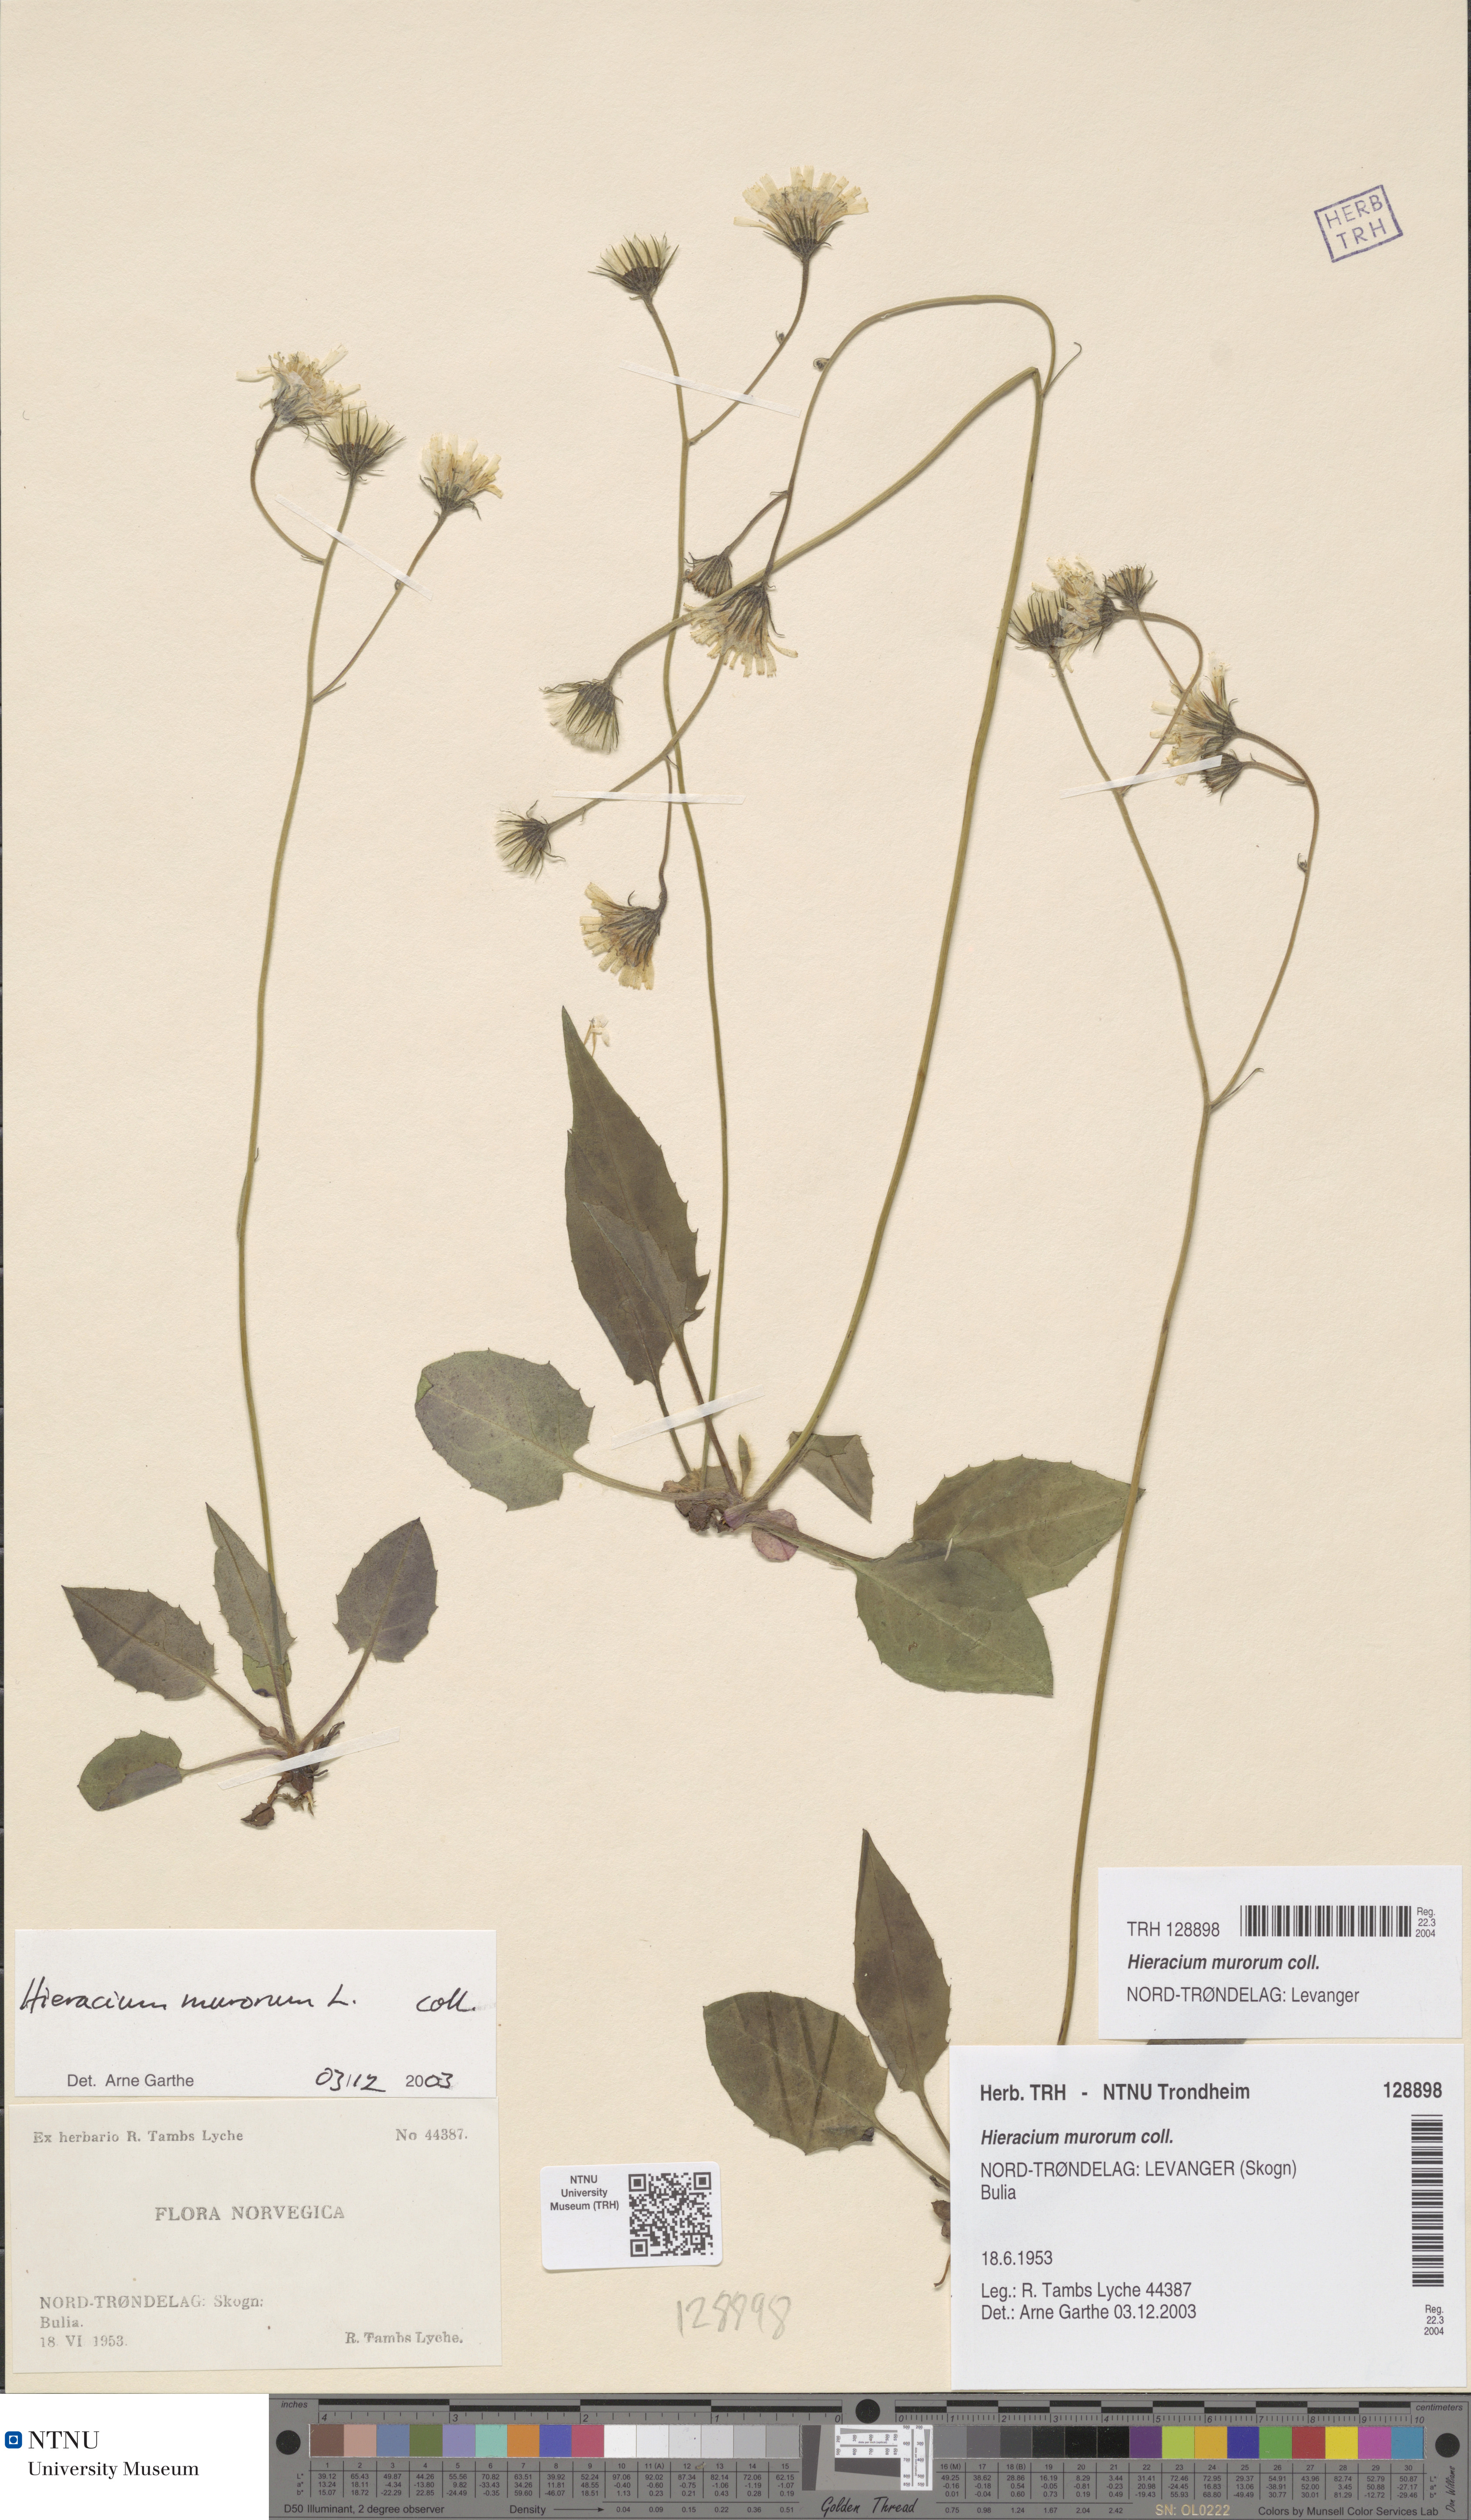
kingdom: Plantae
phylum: Tracheophyta
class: Magnoliopsida
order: Asterales
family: Asteraceae
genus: Hieracium
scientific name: Hieracium murorum
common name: Wall hawkweed
